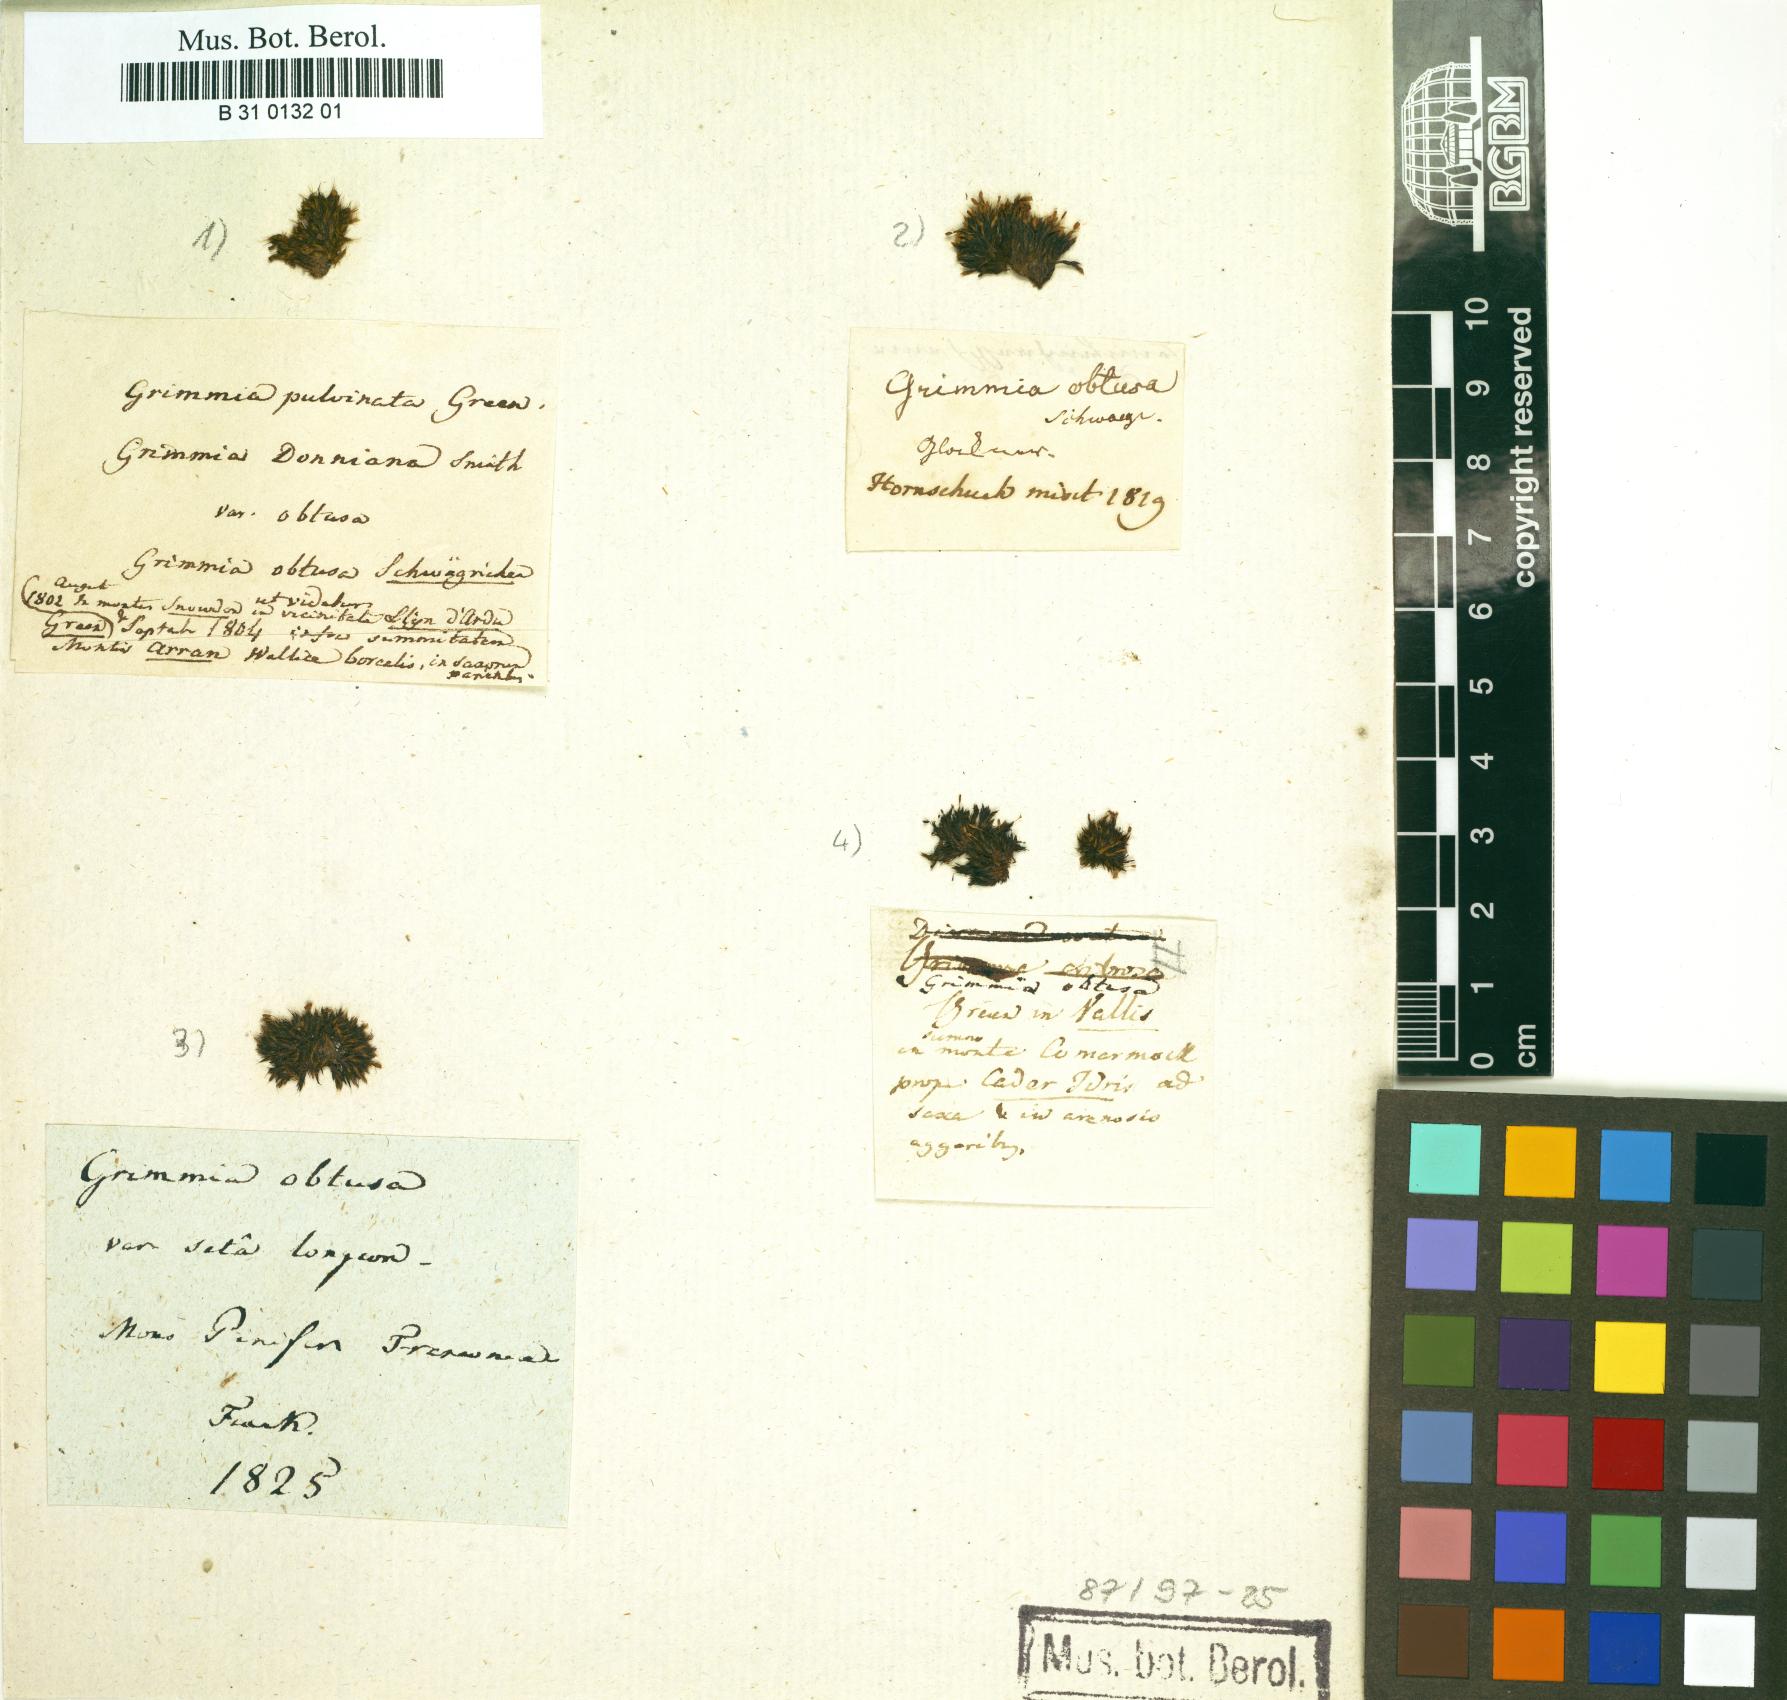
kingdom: Plantae
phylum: Bryophyta
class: Bryopsida
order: Grimmiales
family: Grimmiaceae
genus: Grimmia
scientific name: Grimmia donniana
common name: Donn's grimmia
